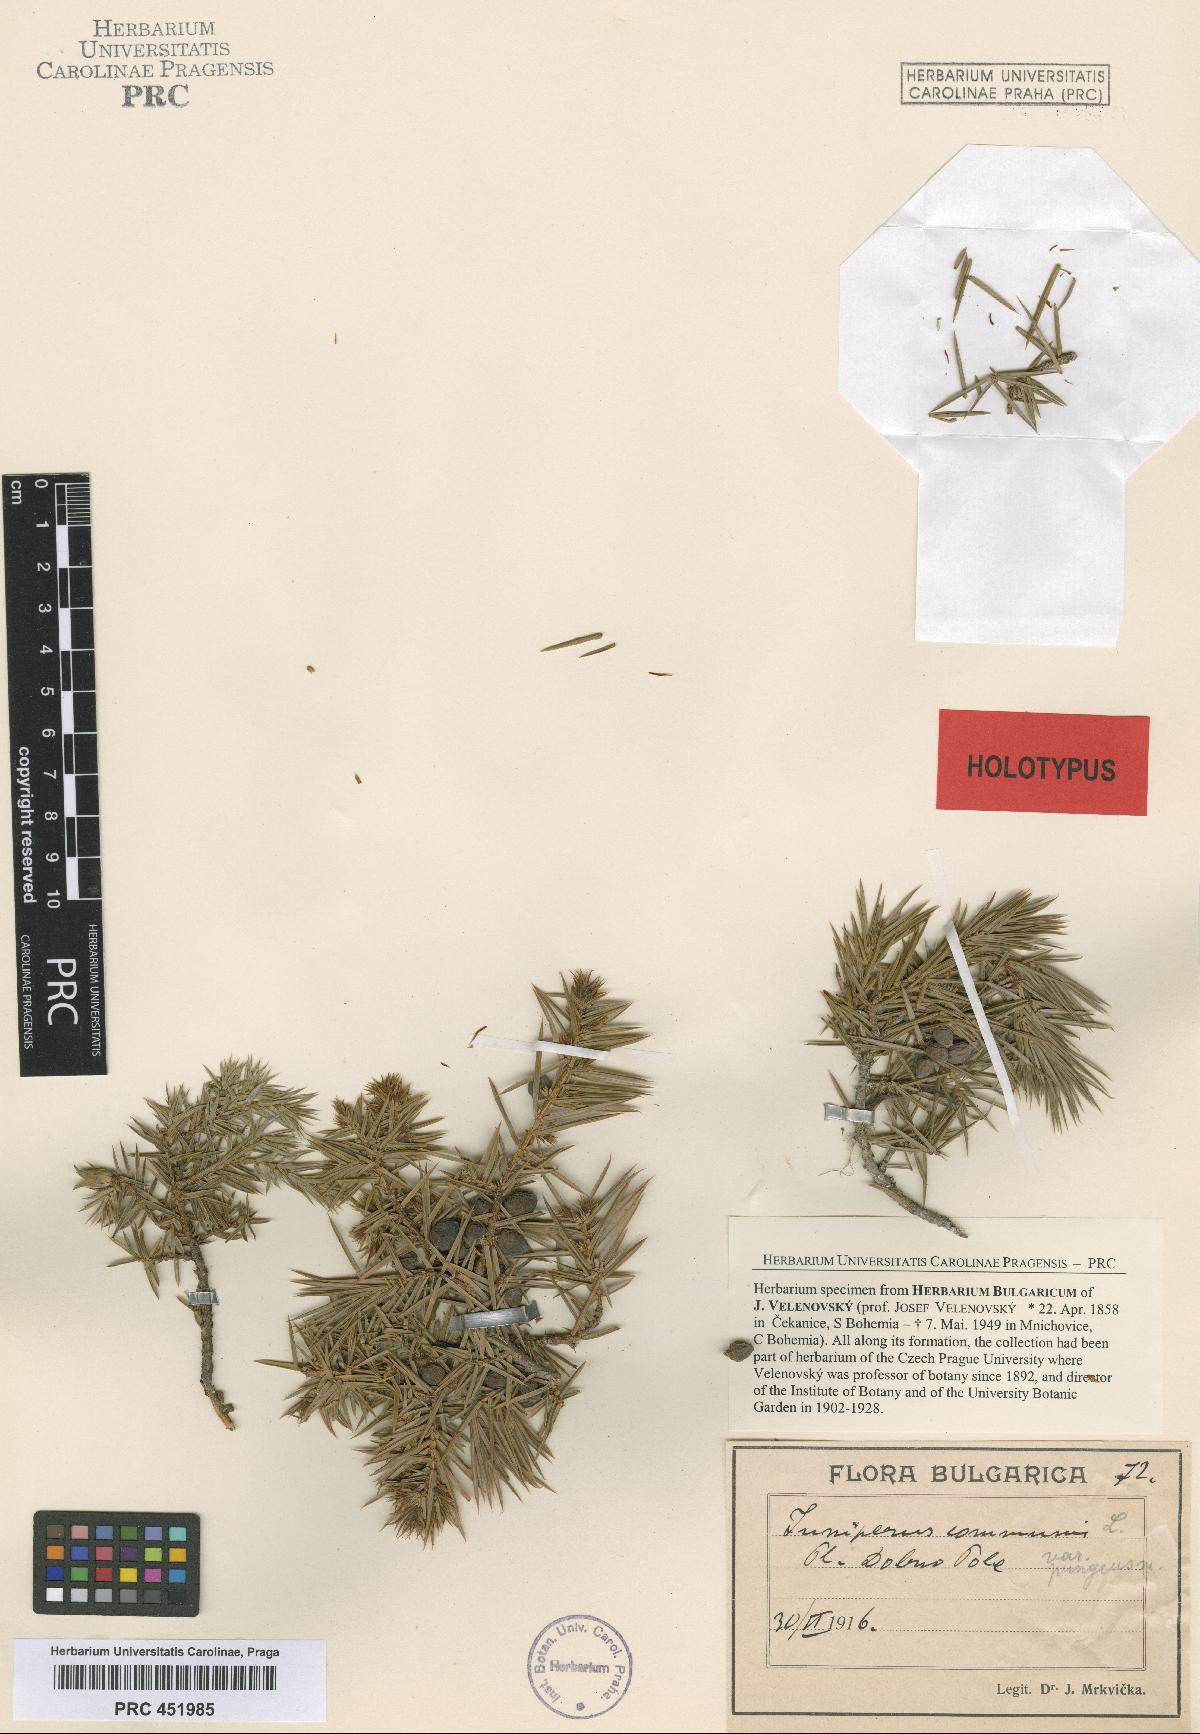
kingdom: Plantae
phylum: Tracheophyta
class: Pinopsida
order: Pinales
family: Cupressaceae
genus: Juniperus
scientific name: Juniperus communis
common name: Common juniper
